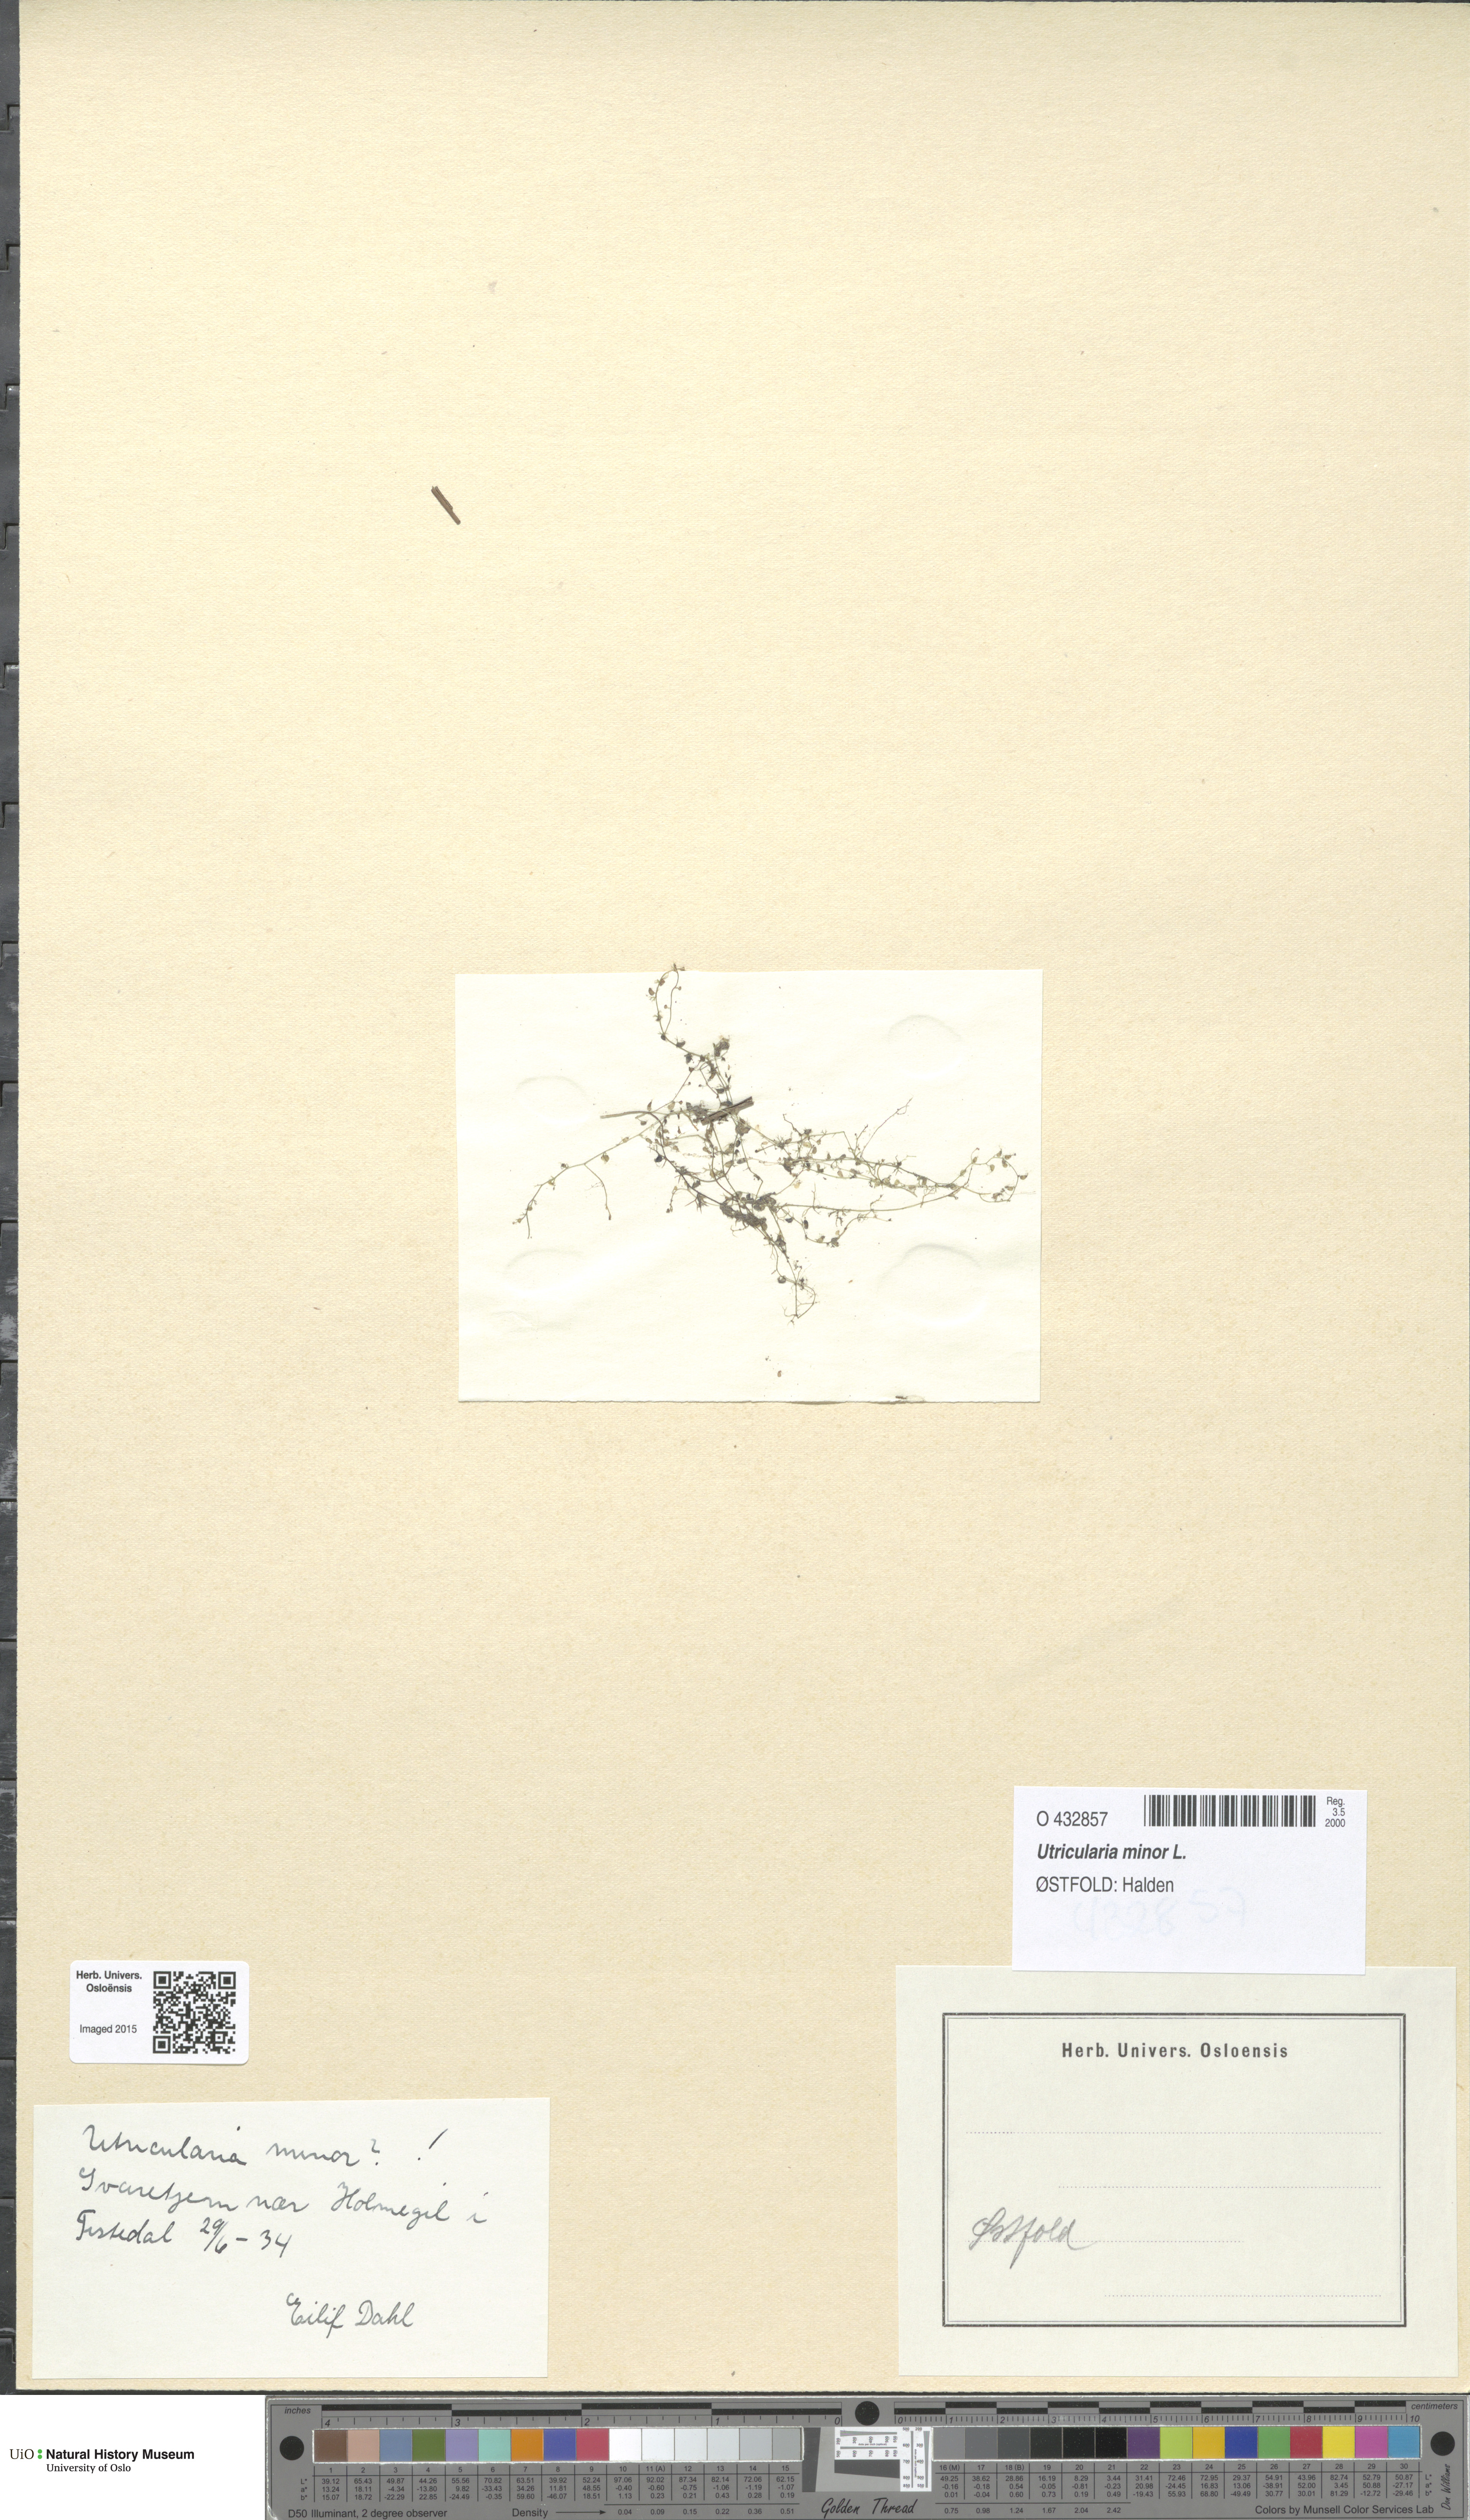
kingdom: Plantae
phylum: Tracheophyta
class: Magnoliopsida
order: Lamiales
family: Lentibulariaceae
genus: Utricularia
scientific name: Utricularia minor
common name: Lesser bladderwort
